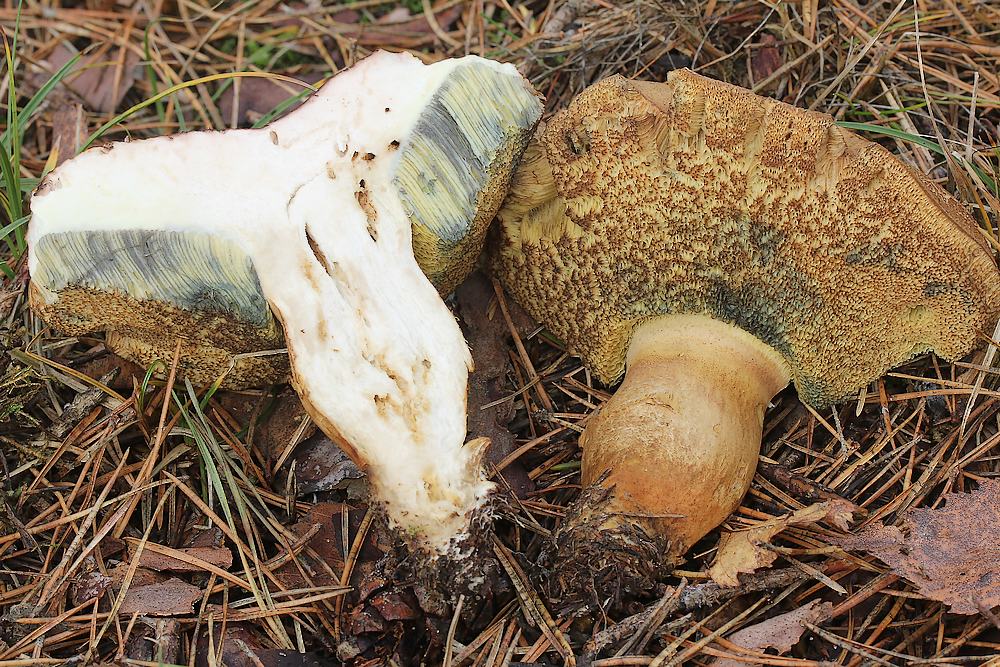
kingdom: Fungi
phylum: Basidiomycota
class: Agaricomycetes
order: Boletales
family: Boletaceae
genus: Imleria
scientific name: Imleria badia
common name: brunstokket rørhat
